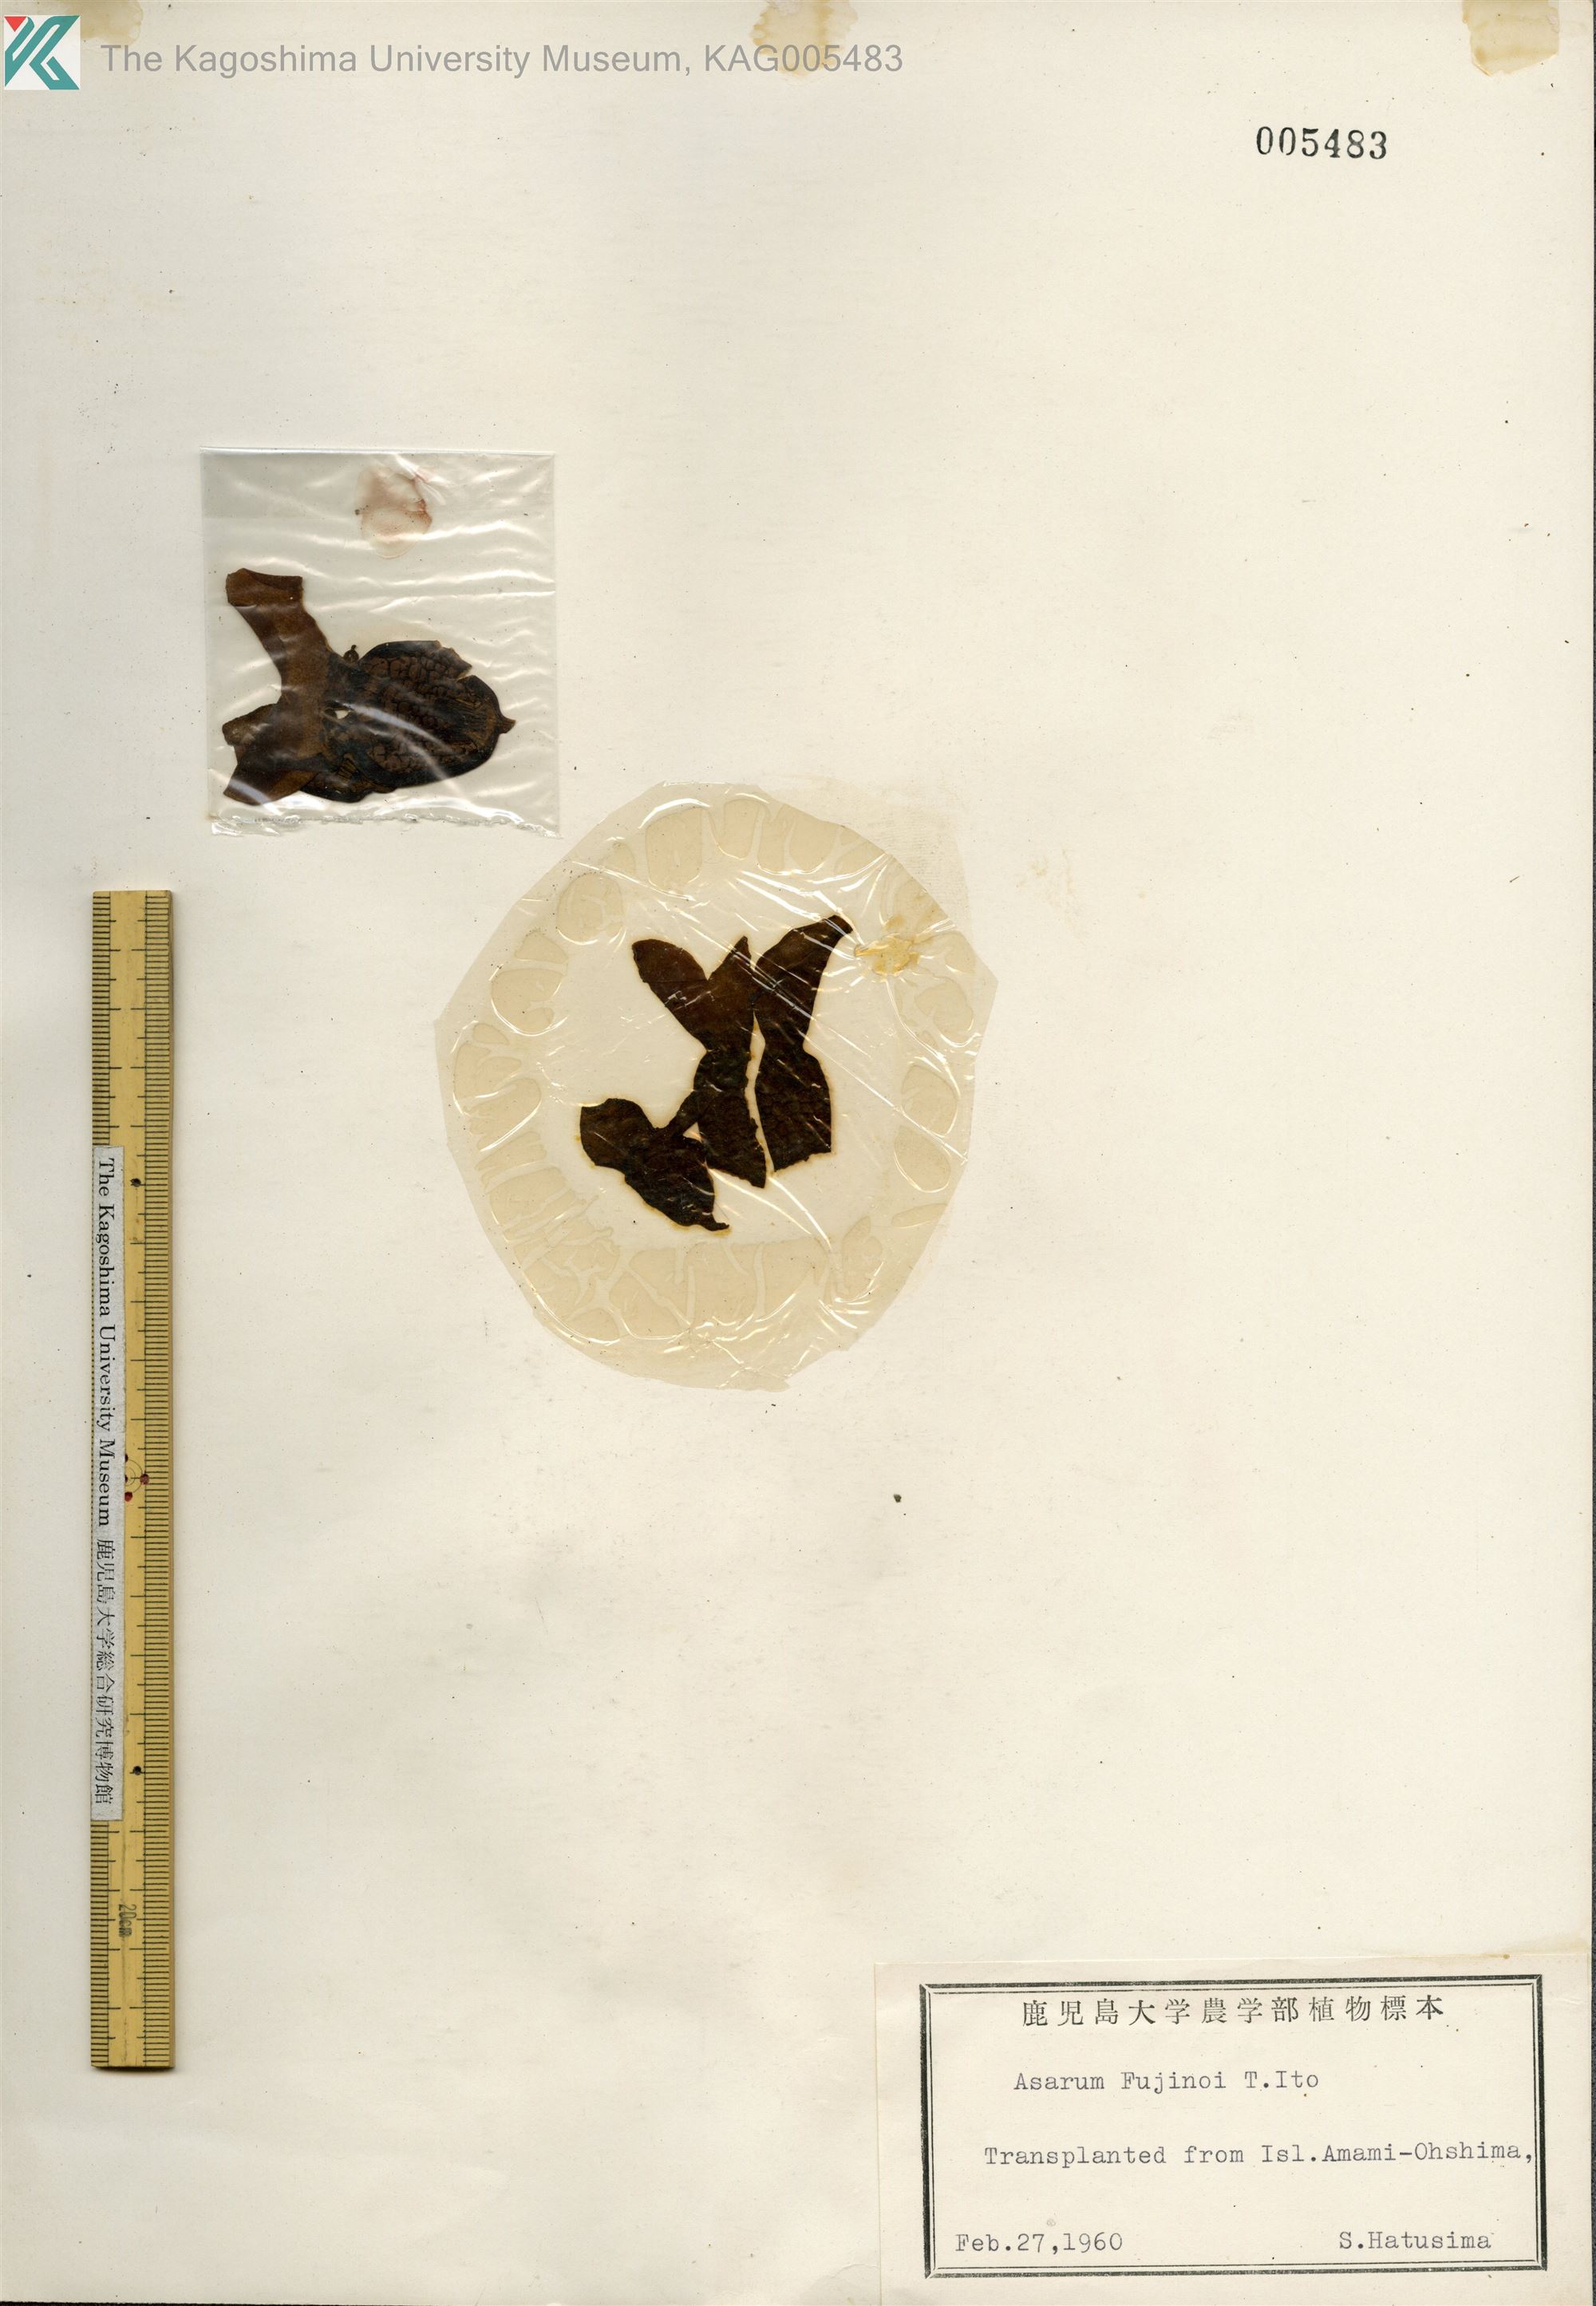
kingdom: Plantae
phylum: Tracheophyta
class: Magnoliopsida
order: Piperales
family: Aristolochiaceae
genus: Asarum
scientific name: Asarum
